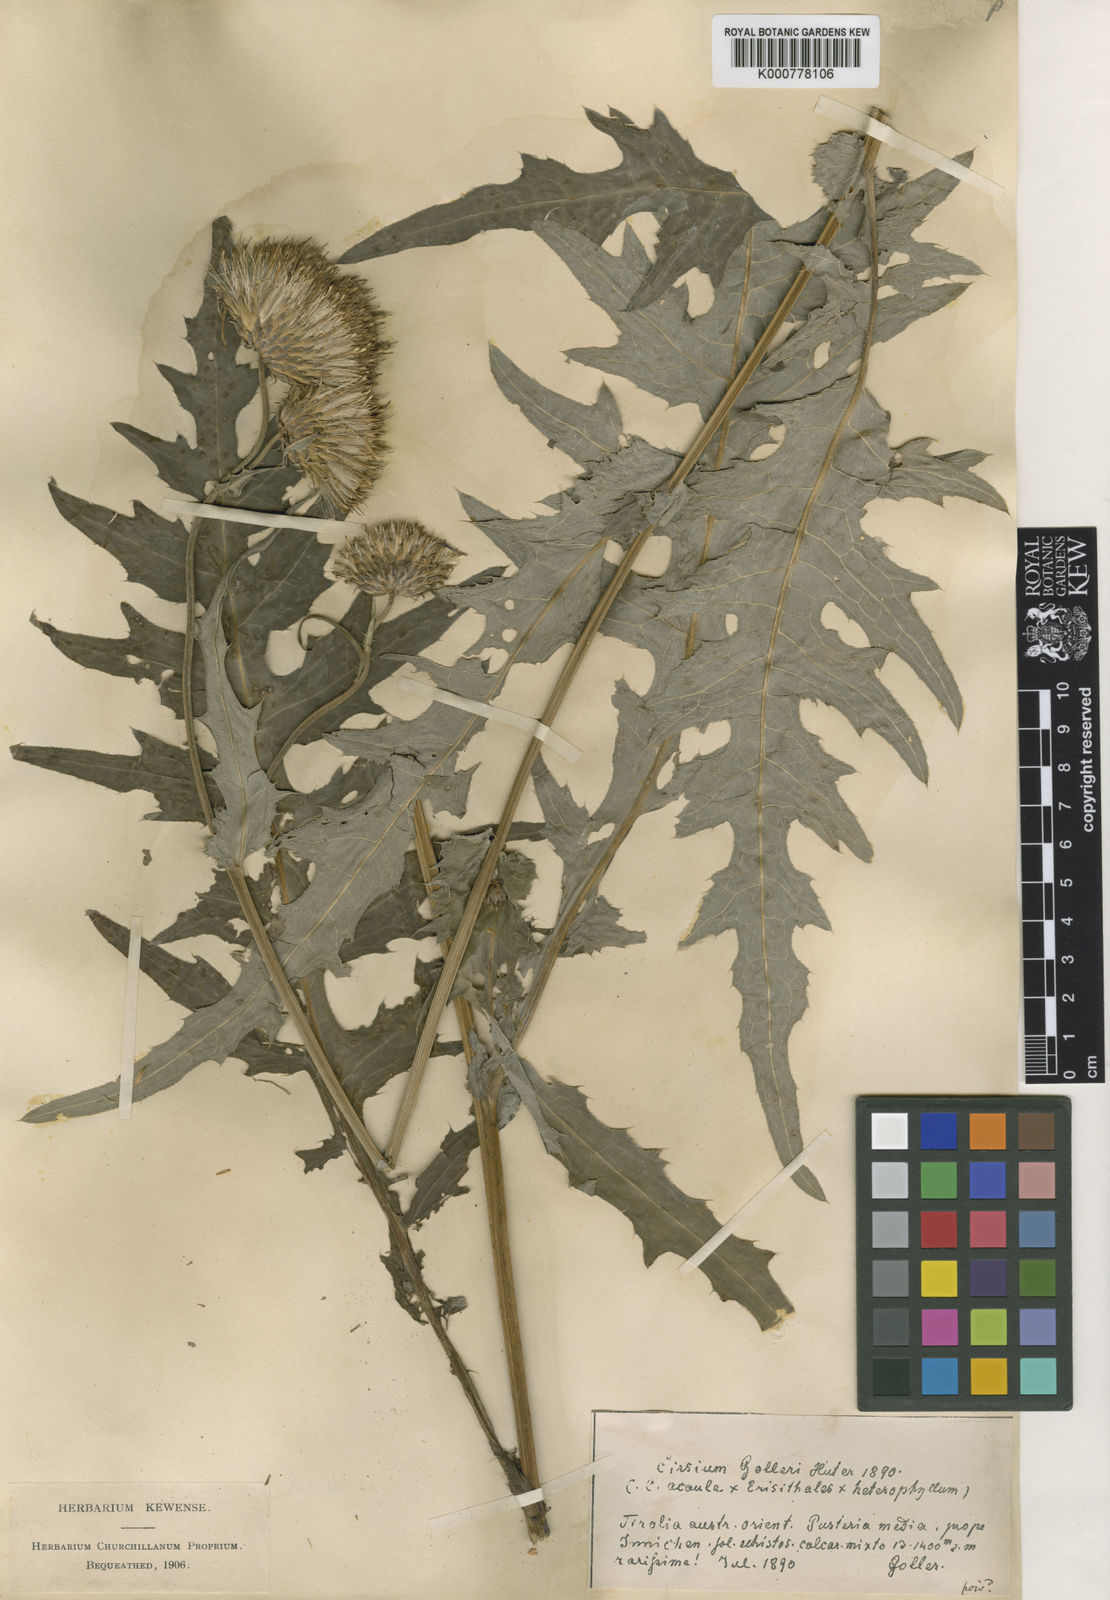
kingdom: Plantae
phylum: Tracheophyta
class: Magnoliopsida
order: Asterales
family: Asteraceae
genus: Cirsium
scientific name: Cirsium
